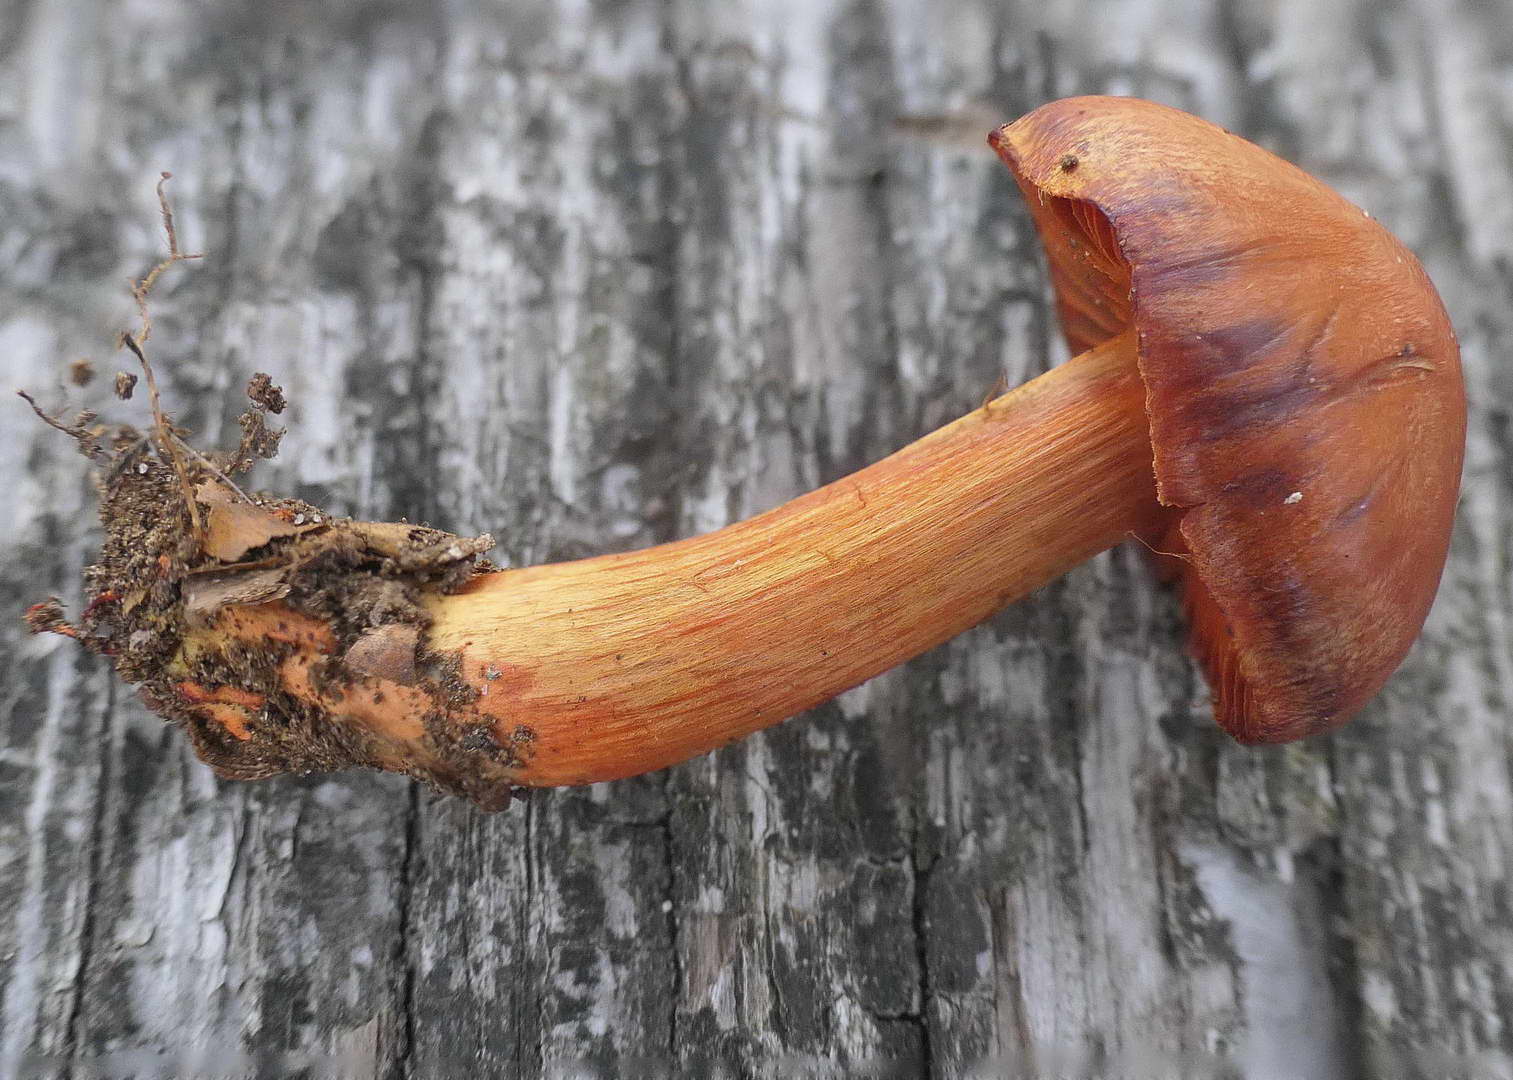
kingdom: Fungi
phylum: Basidiomycota
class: Agaricomycetes
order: Agaricales
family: Cortinariaceae
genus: Cortinarius
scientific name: Cortinarius cinnabarinus
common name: cinnober-slørhat
